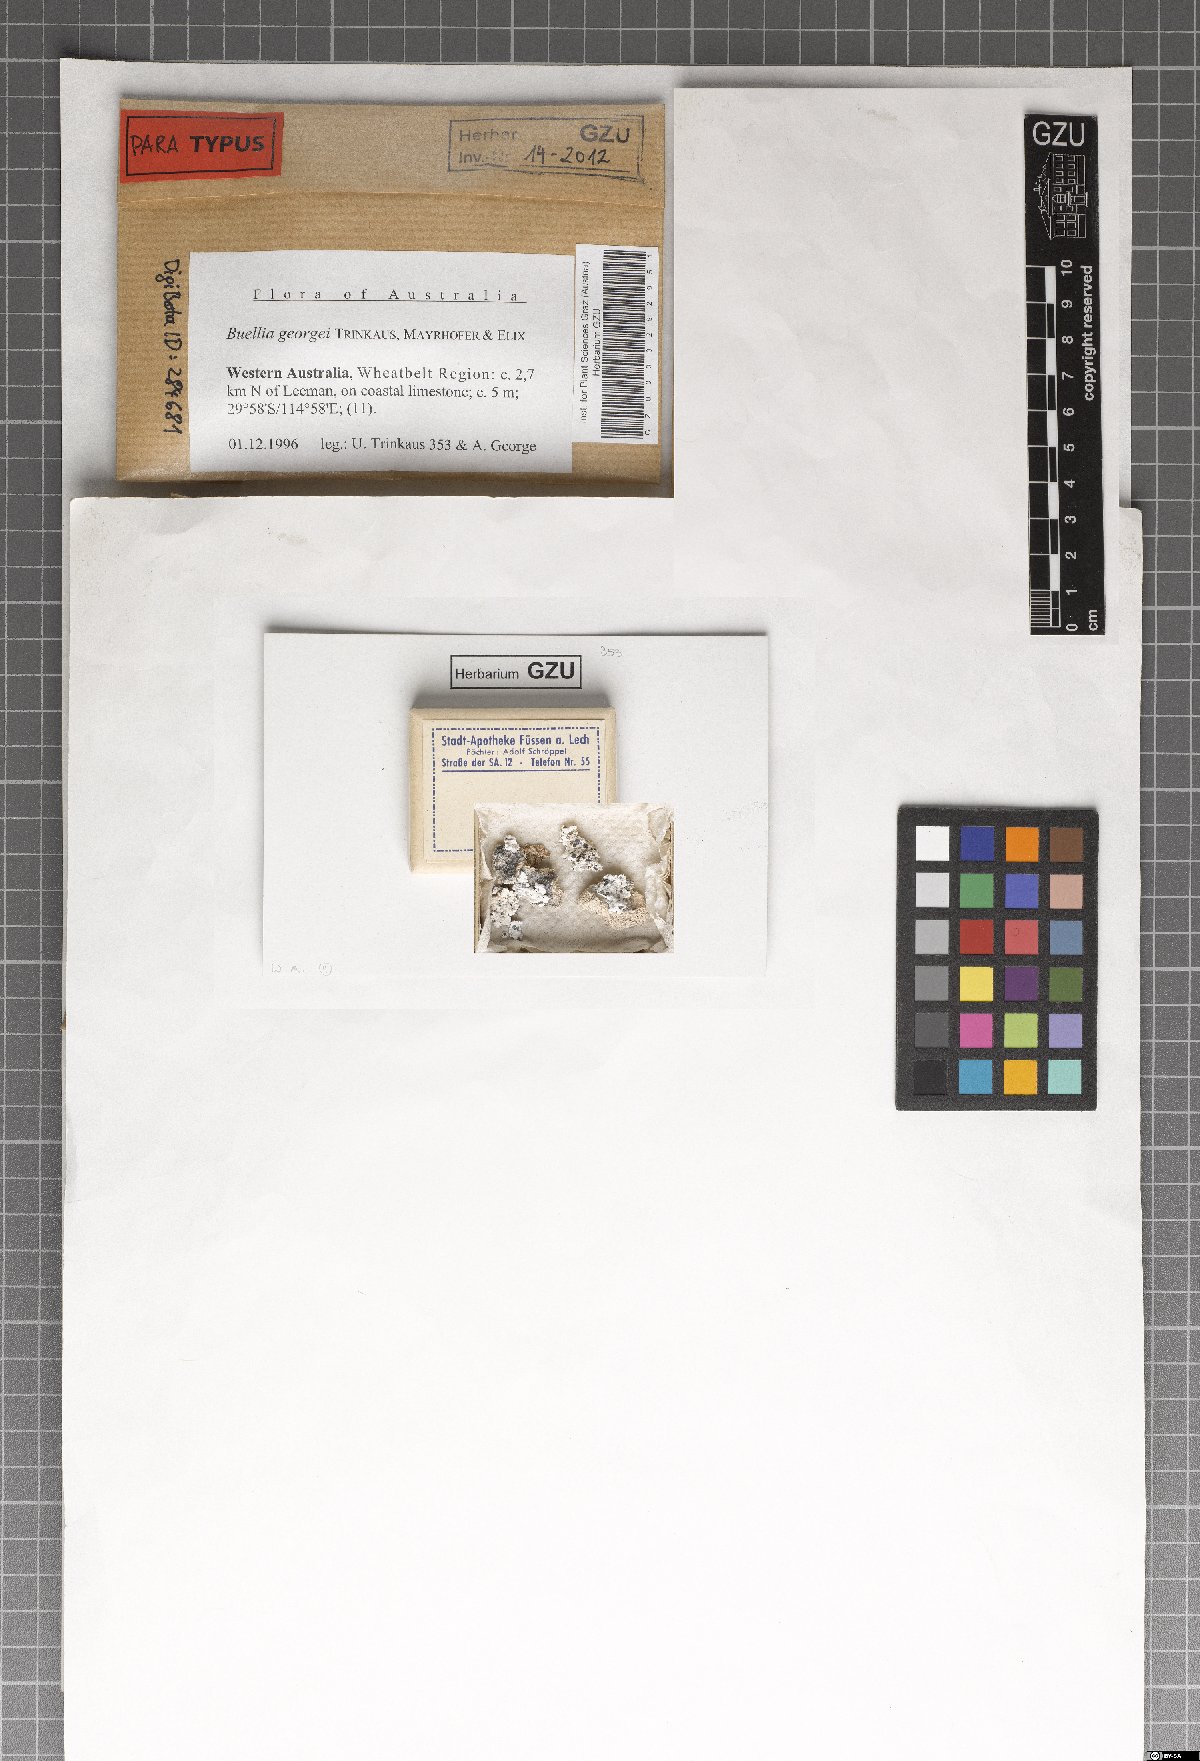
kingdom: Fungi
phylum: Ascomycota
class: Lecanoromycetes
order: Caliciales
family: Caliciaceae
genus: Buellia
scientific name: Buellia georgei
